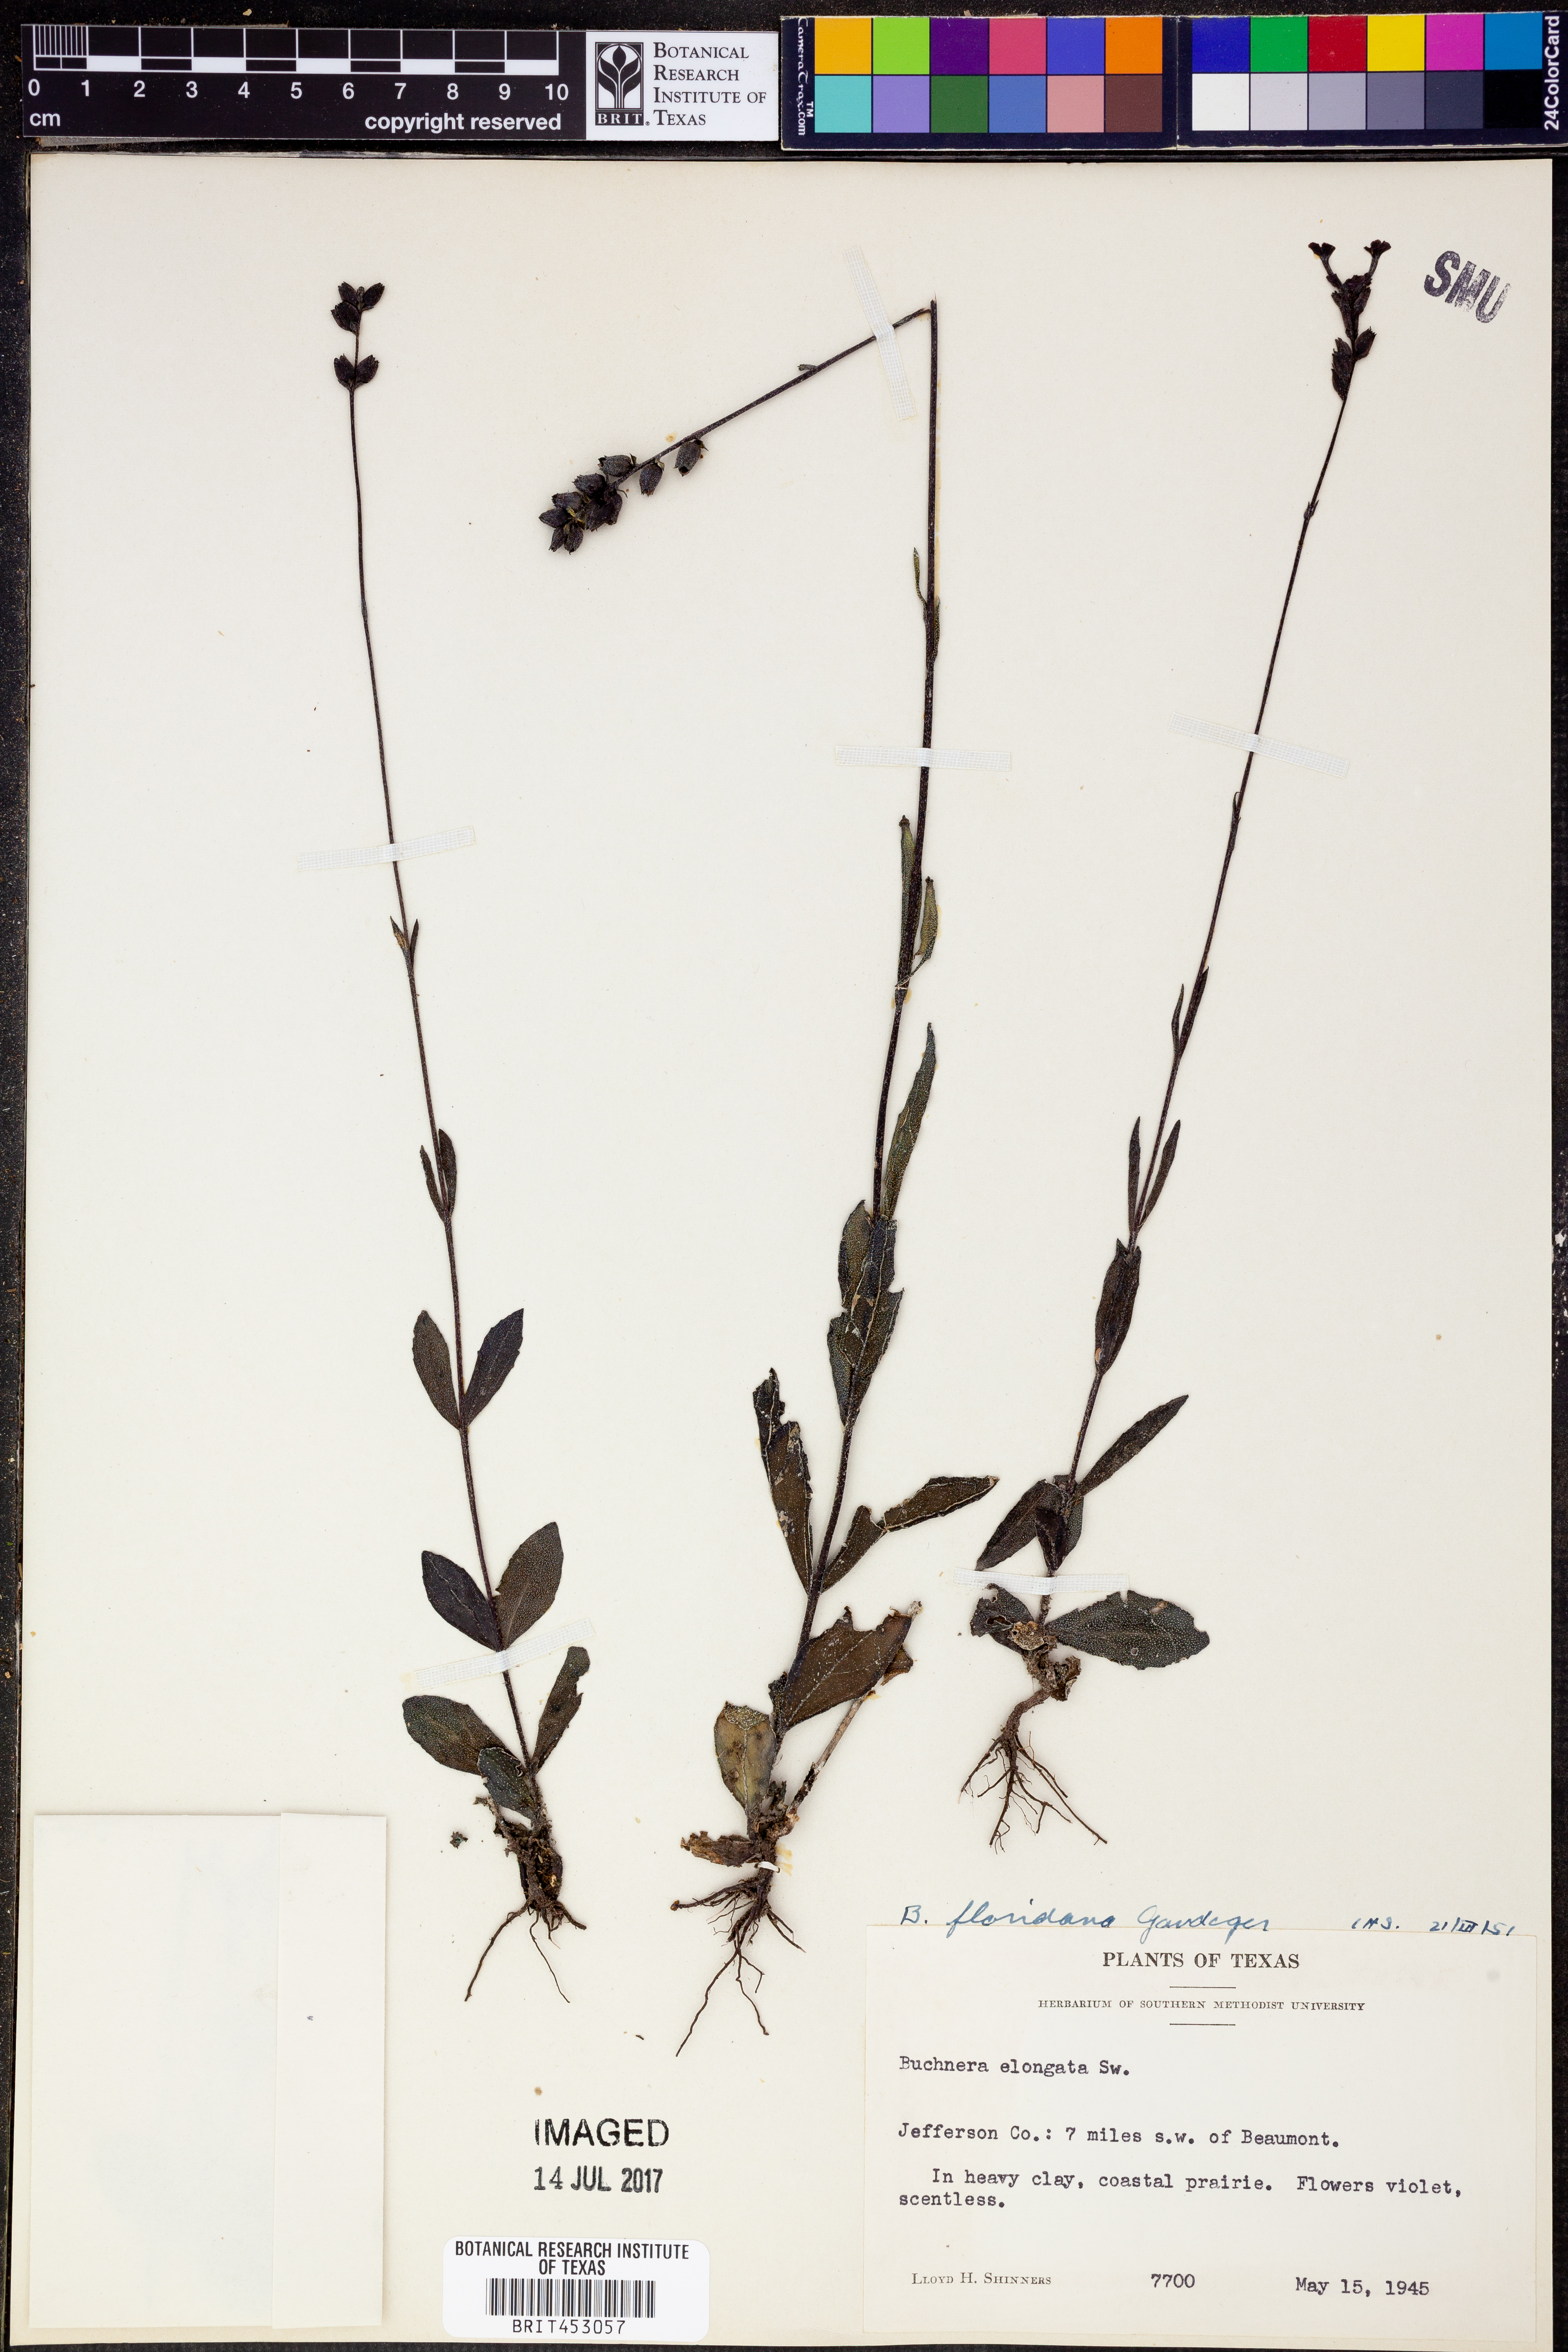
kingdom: Plantae
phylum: Tracheophyta
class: Magnoliopsida
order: Lamiales
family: Orobanchaceae
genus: Buchnera
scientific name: Buchnera floridana
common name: Florida bluehearts
